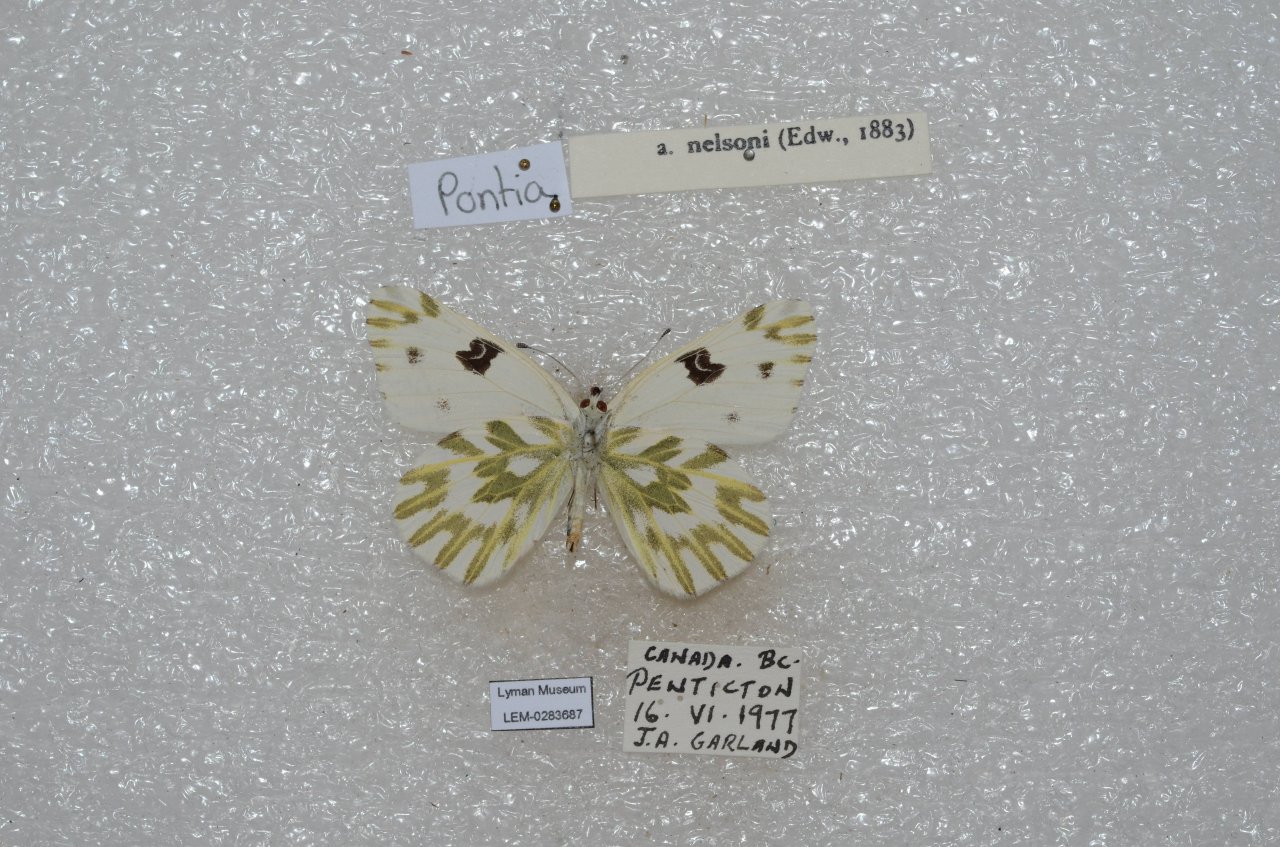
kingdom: Animalia
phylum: Arthropoda
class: Insecta
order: Lepidoptera
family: Pieridae
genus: Colias
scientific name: Colias occidentalis
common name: Western Sulphur
